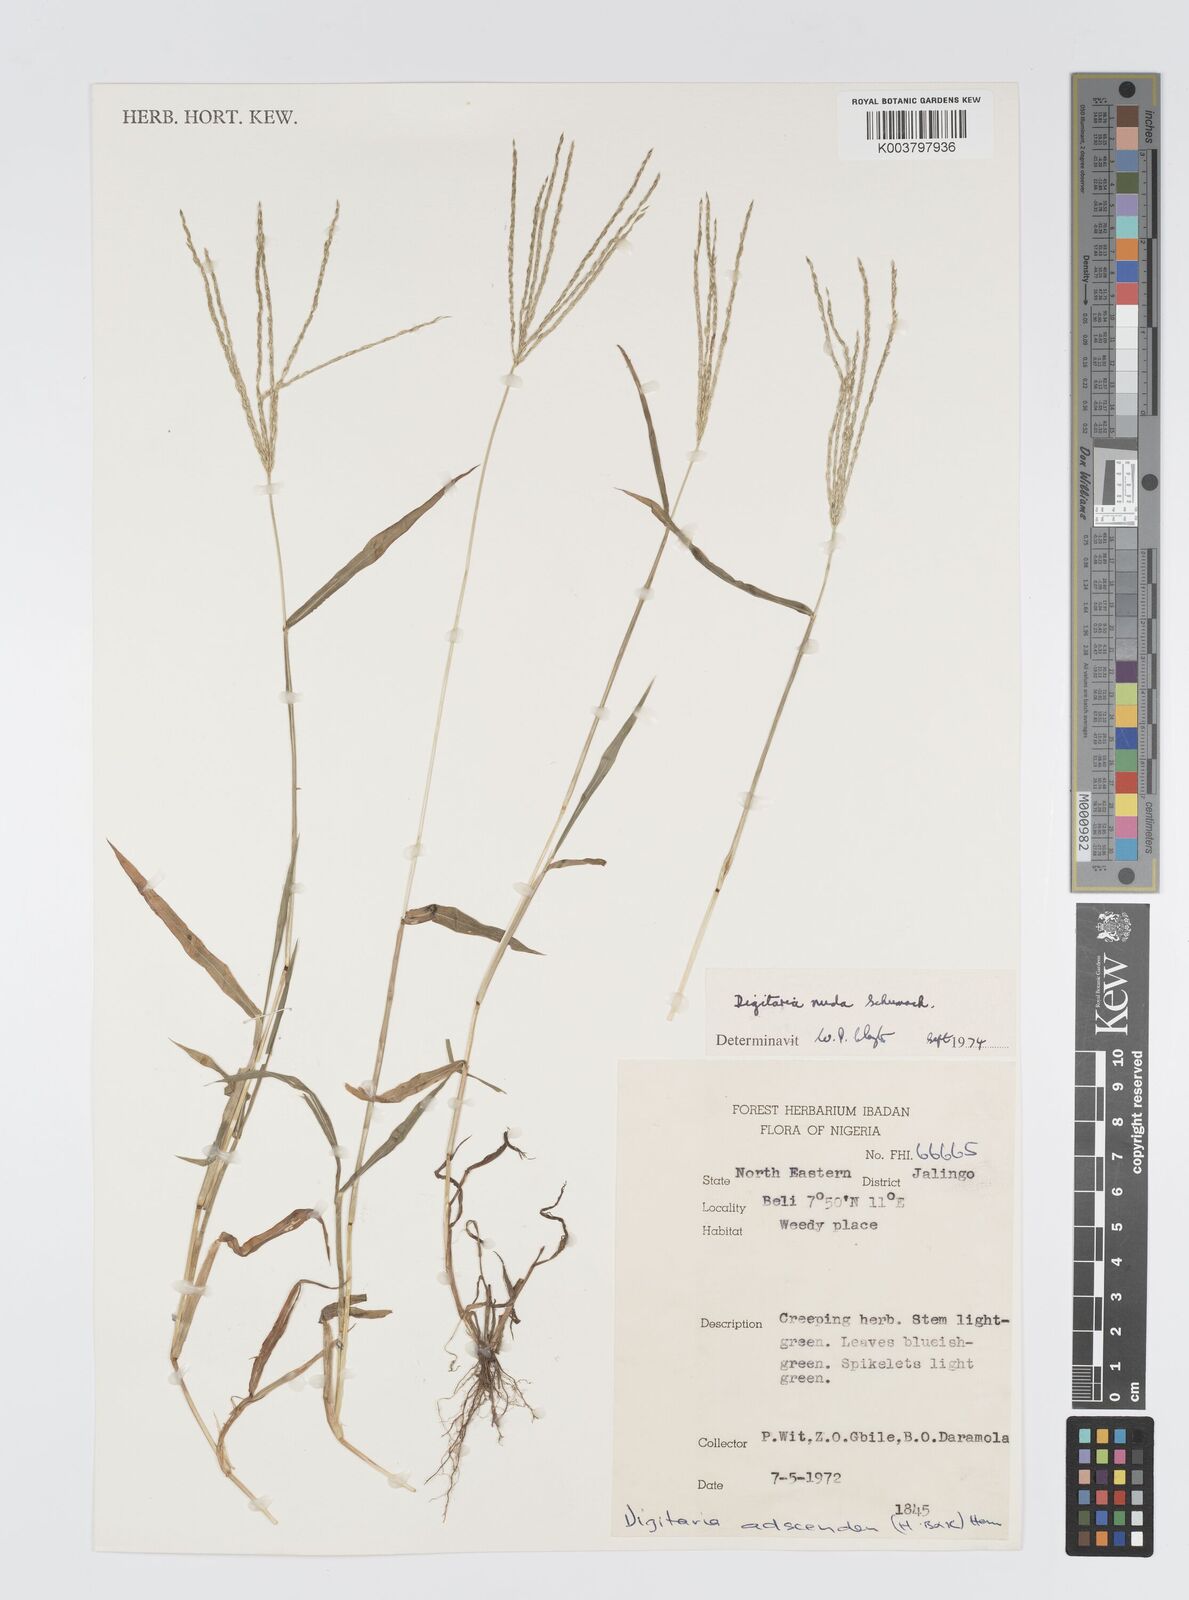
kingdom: Plantae
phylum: Tracheophyta
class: Liliopsida
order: Poales
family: Poaceae
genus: Digitaria
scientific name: Digitaria nuda
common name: Naked crabgrass
